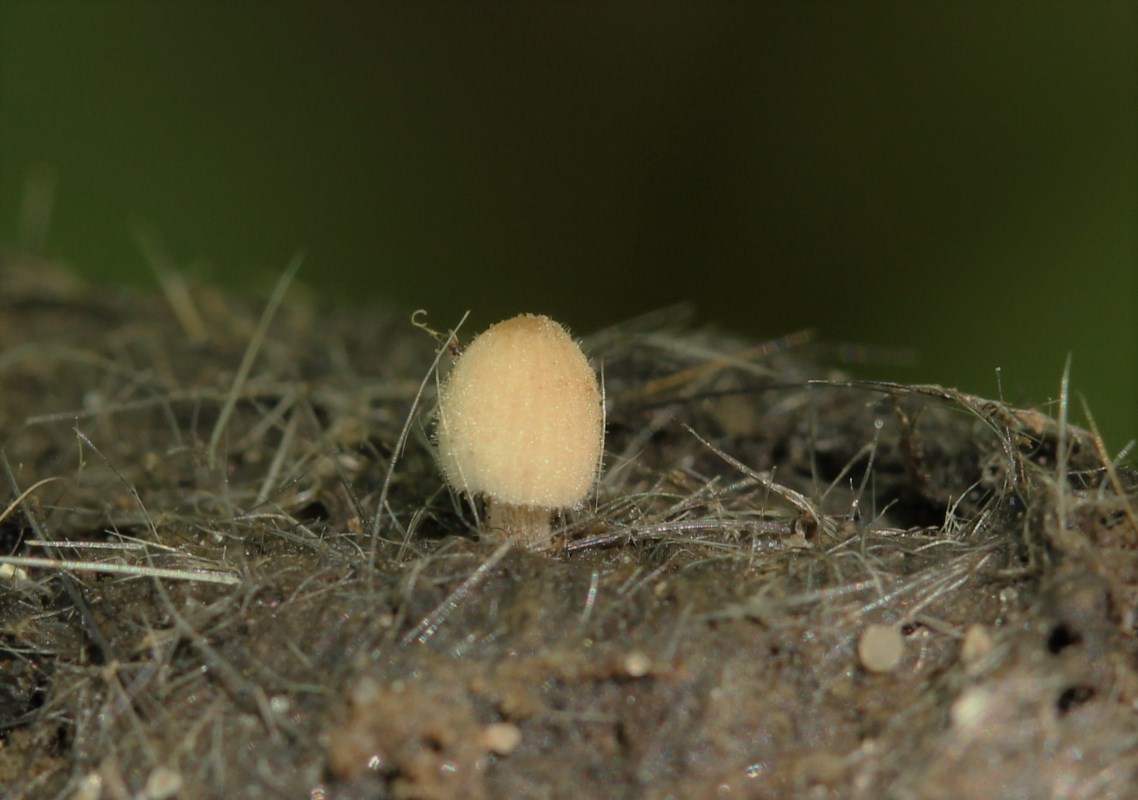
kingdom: Fungi
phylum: Basidiomycota
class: Agaricomycetes
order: Agaricales
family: Psathyrellaceae
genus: Coprinellus
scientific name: Coprinellus
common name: blækhat
